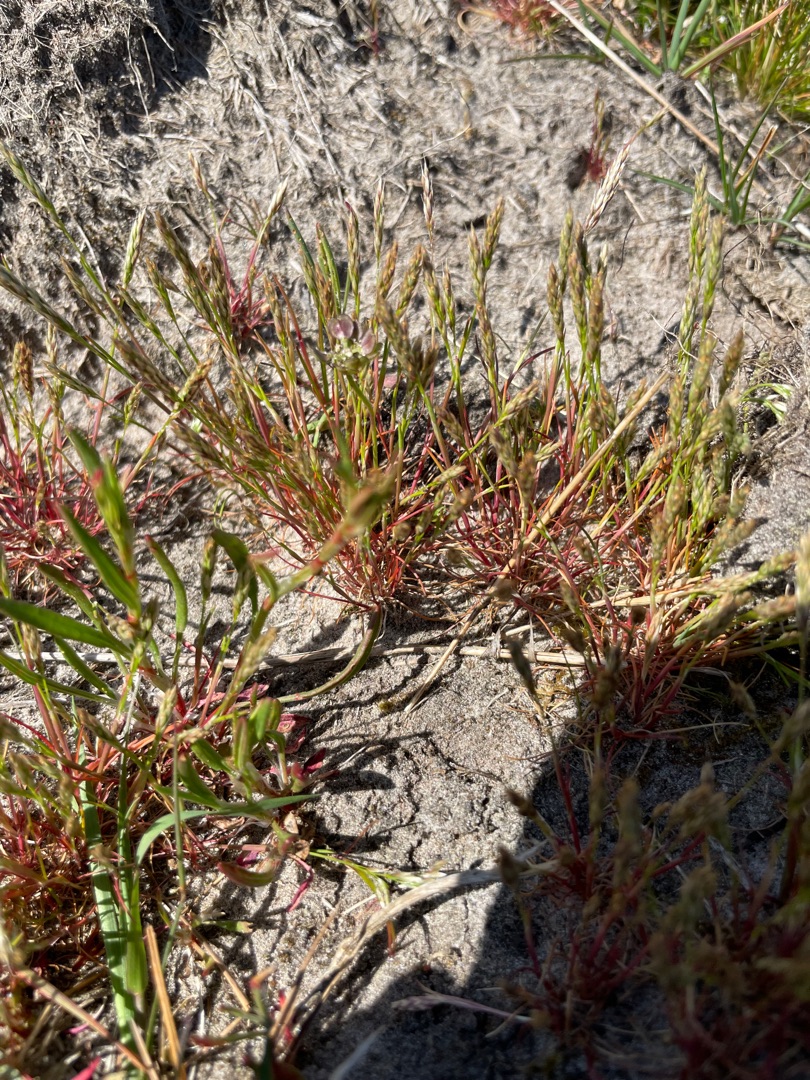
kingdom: Plantae
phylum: Tracheophyta
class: Liliopsida
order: Poales
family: Poaceae
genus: Aira
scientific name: Aira praecox
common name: Tidlig dværgbunke
